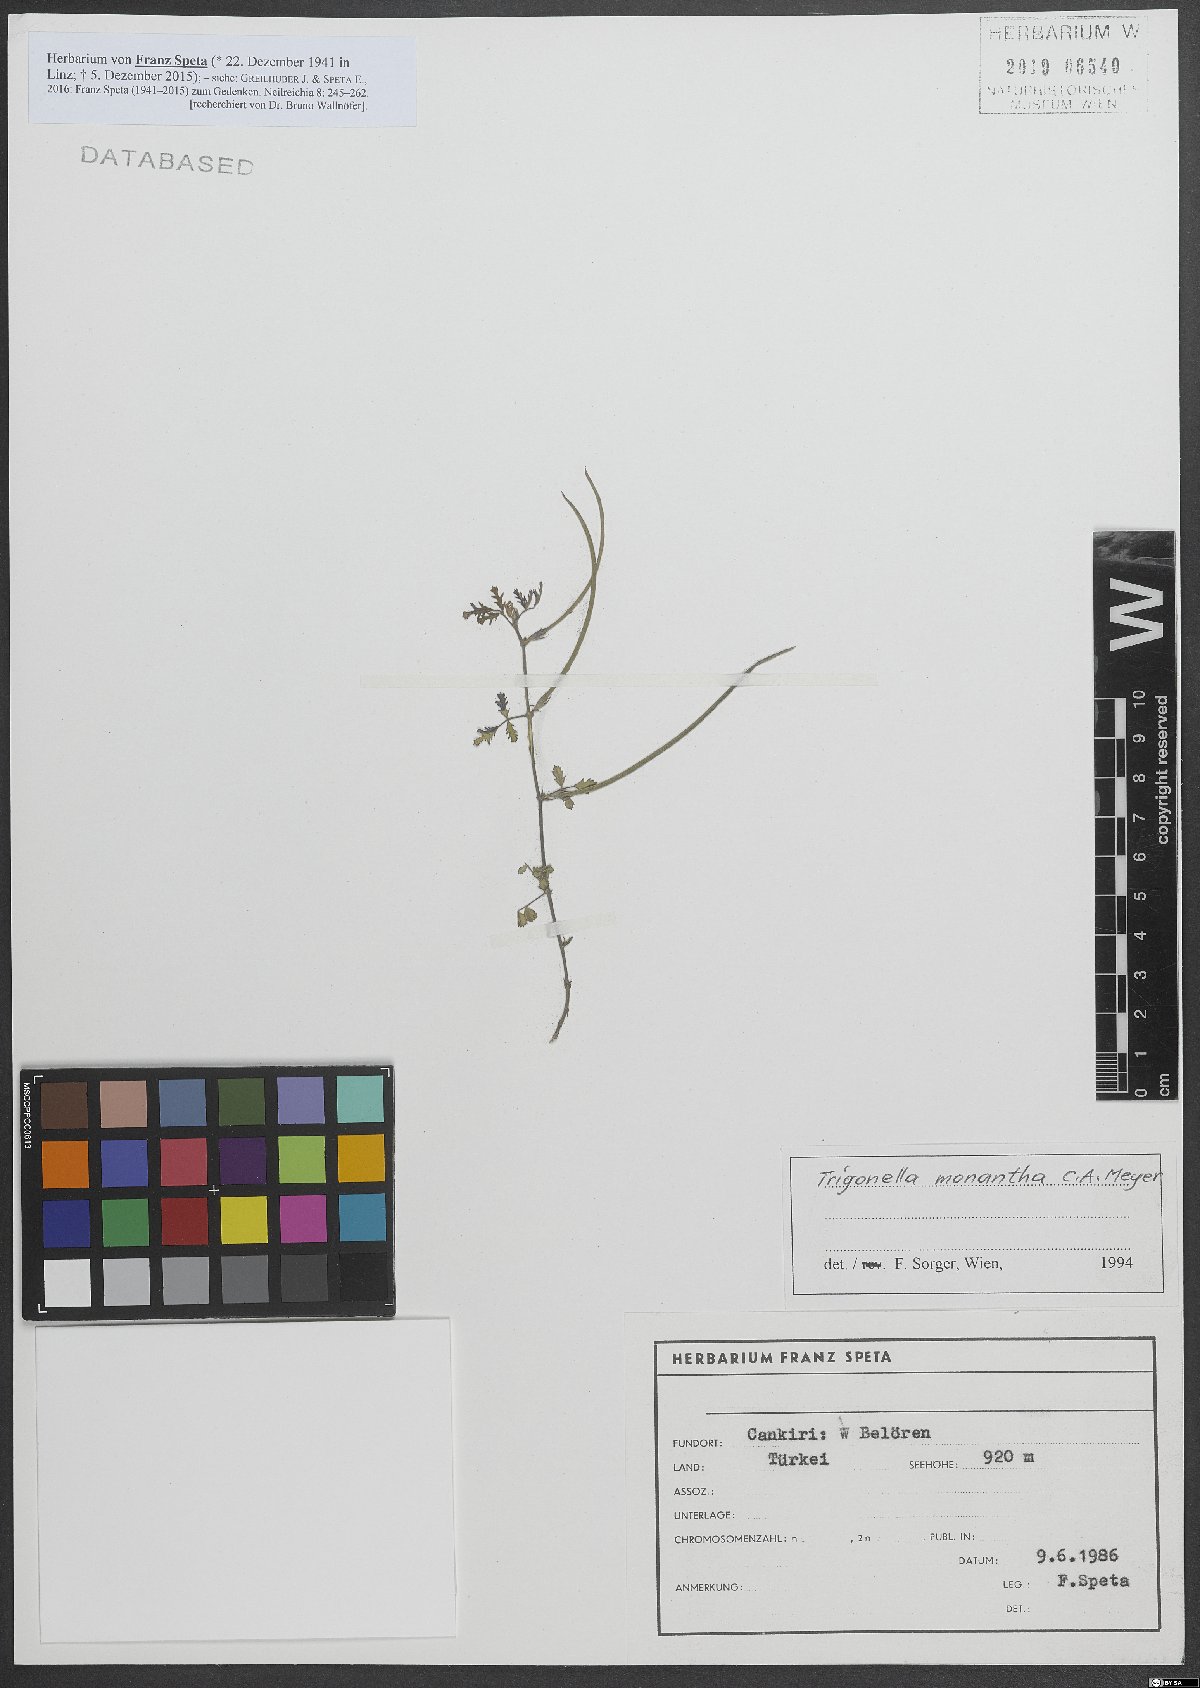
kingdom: Plantae
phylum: Tracheophyta
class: Magnoliopsida
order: Fabales
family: Fabaceae
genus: Medicago
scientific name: Medicago monantha
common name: Medick
